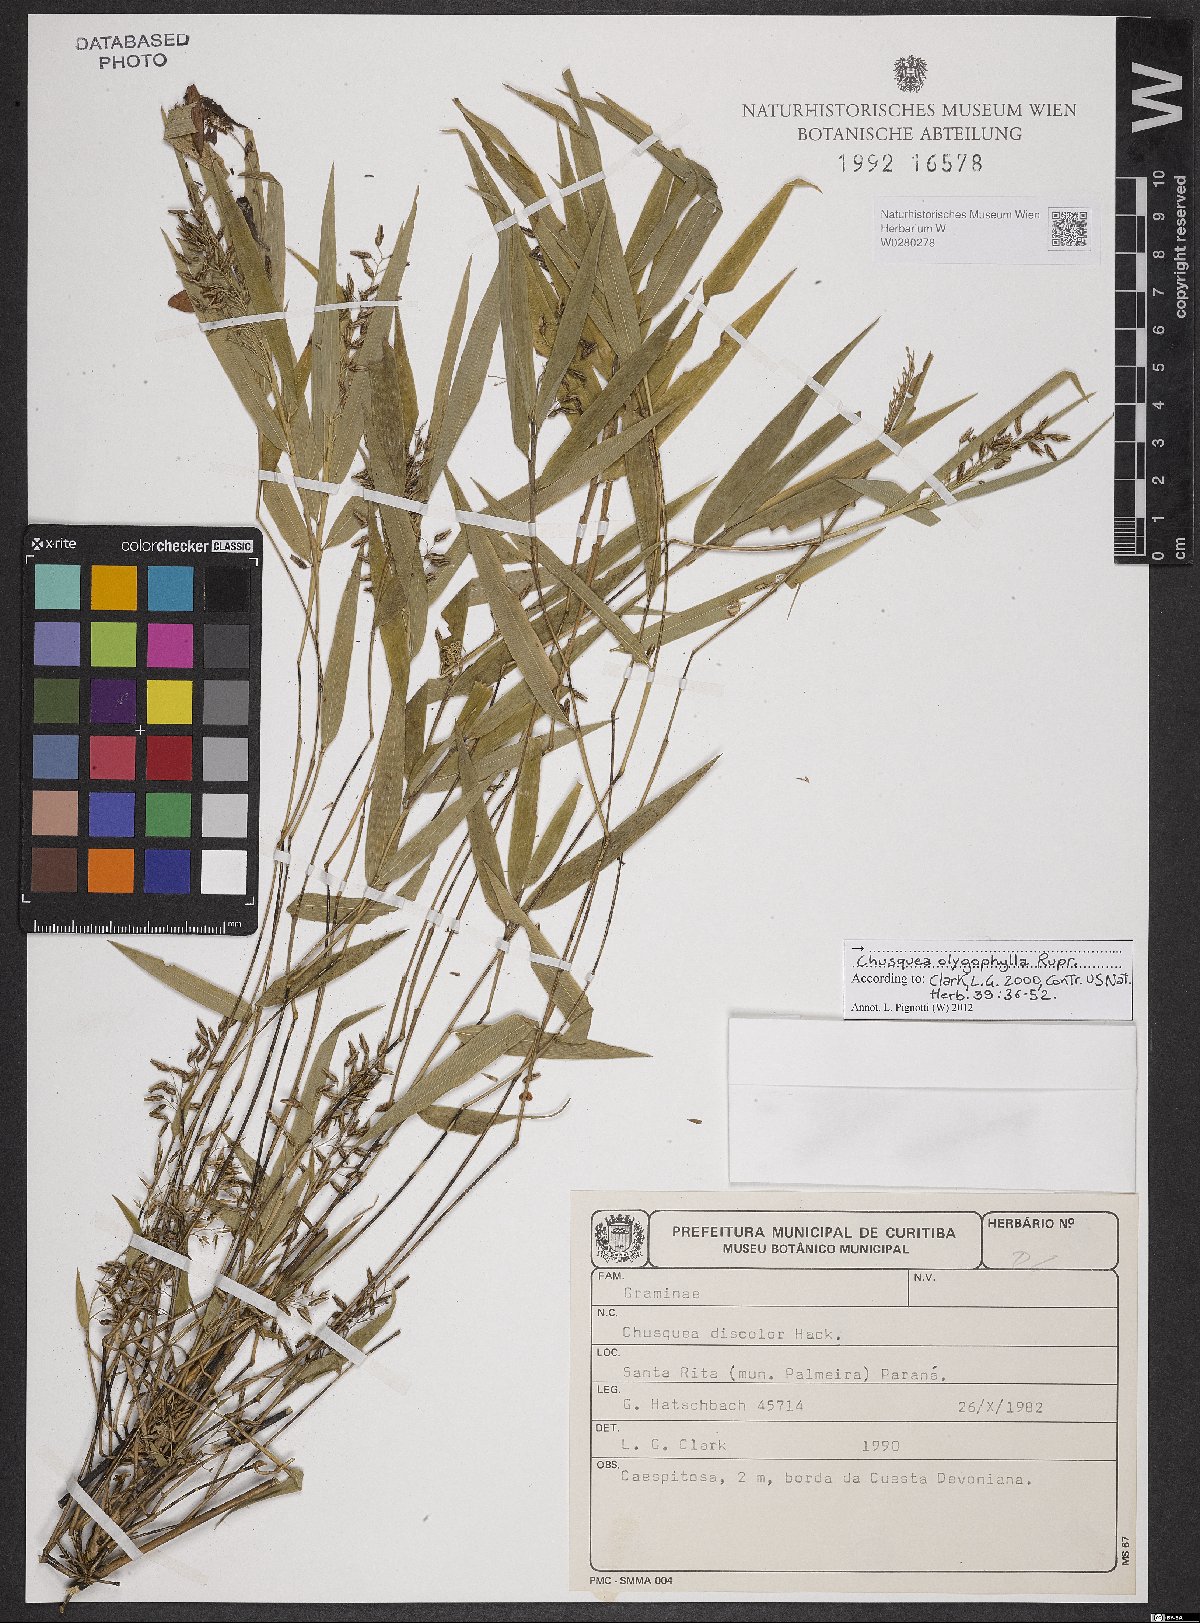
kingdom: Plantae
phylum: Tracheophyta
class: Liliopsida
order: Poales
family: Poaceae
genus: Chusquea
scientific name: Chusquea oligophylla
